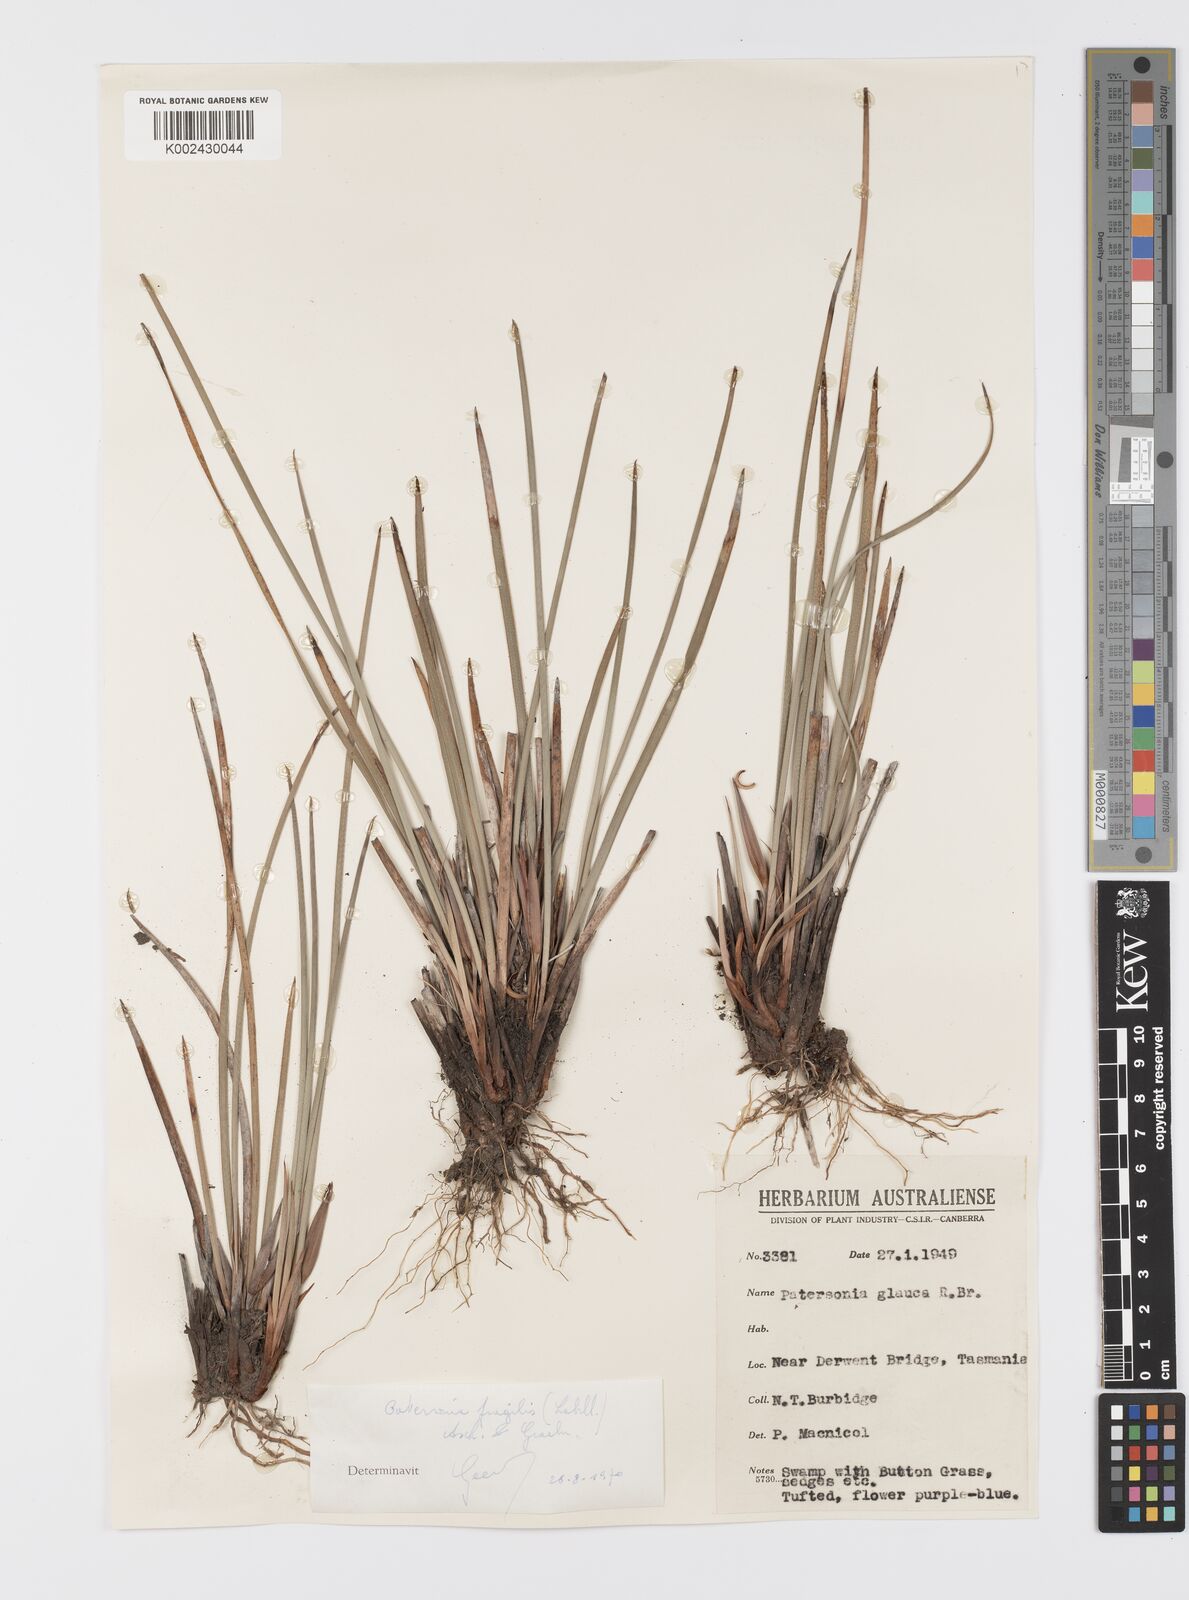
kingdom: Plantae
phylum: Tracheophyta
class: Liliopsida
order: Asparagales
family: Iridaceae
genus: Patersonia
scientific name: Patersonia fragilis
